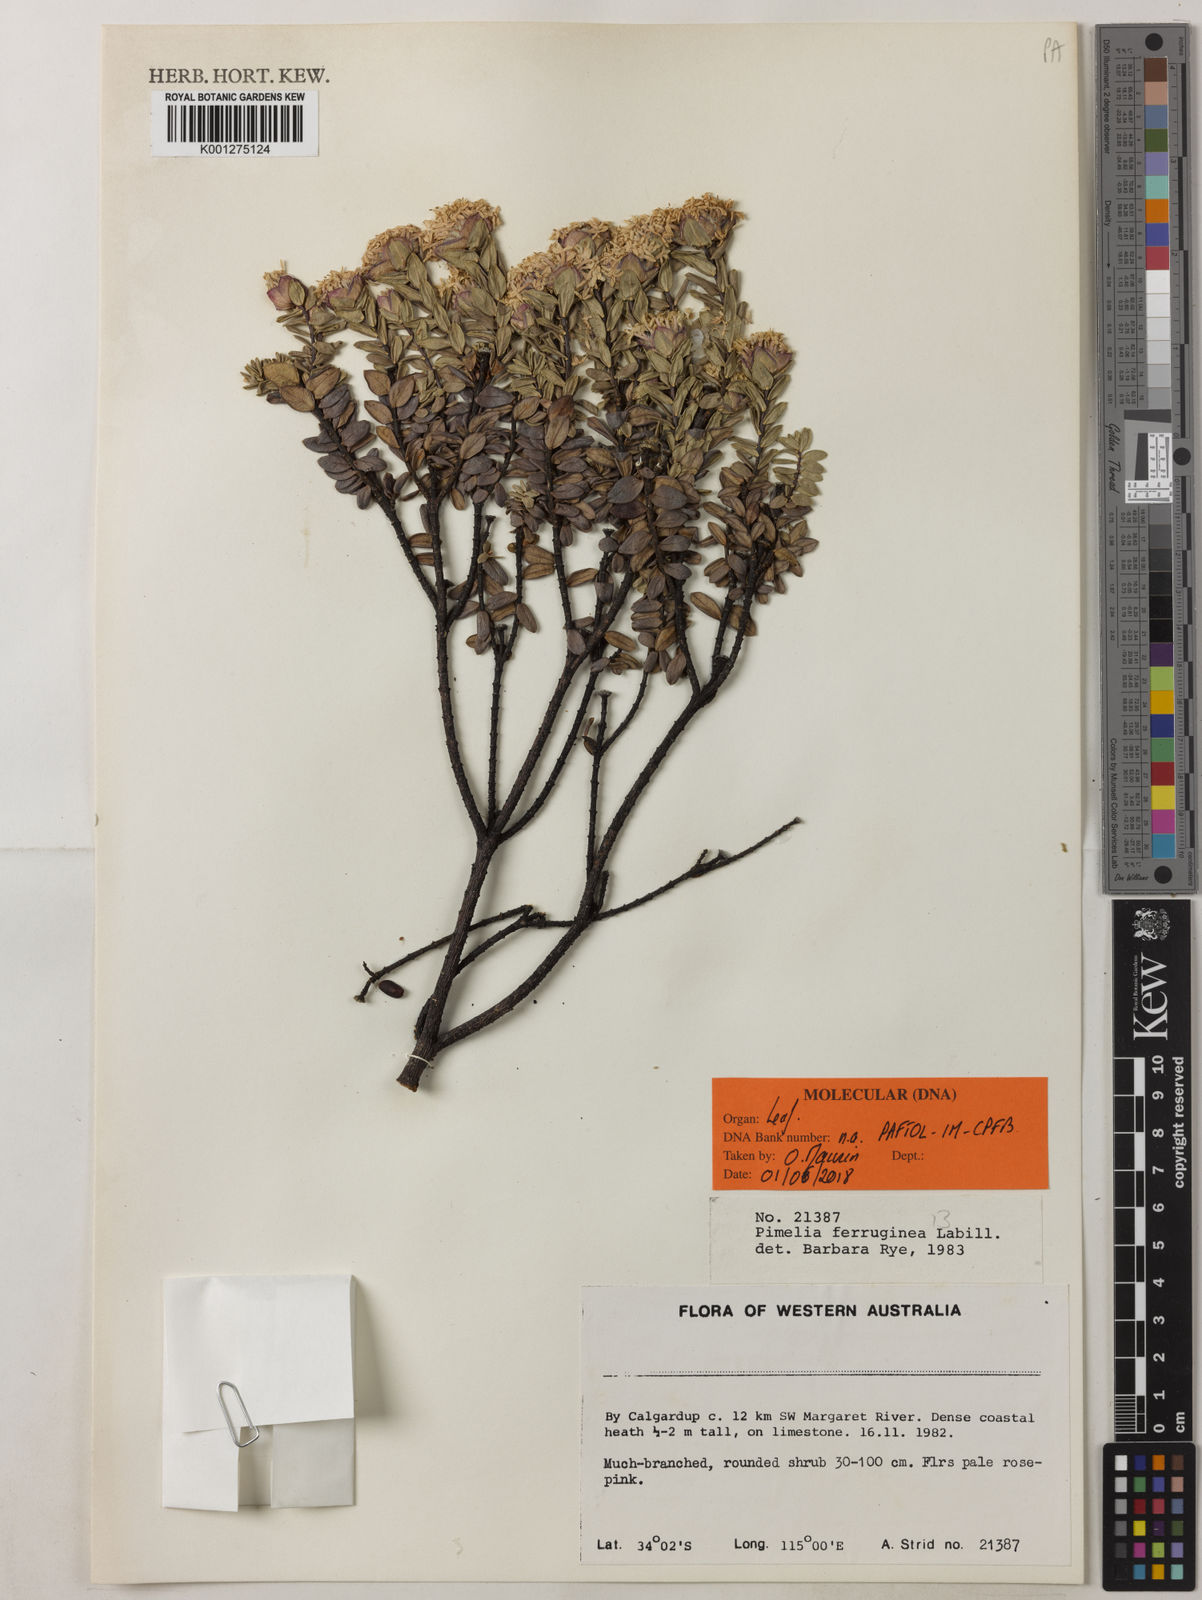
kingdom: Plantae
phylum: Tracheophyta
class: Magnoliopsida
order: Malvales
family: Thymelaeaceae
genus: Pimelea
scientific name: Pimelea ferruginea
